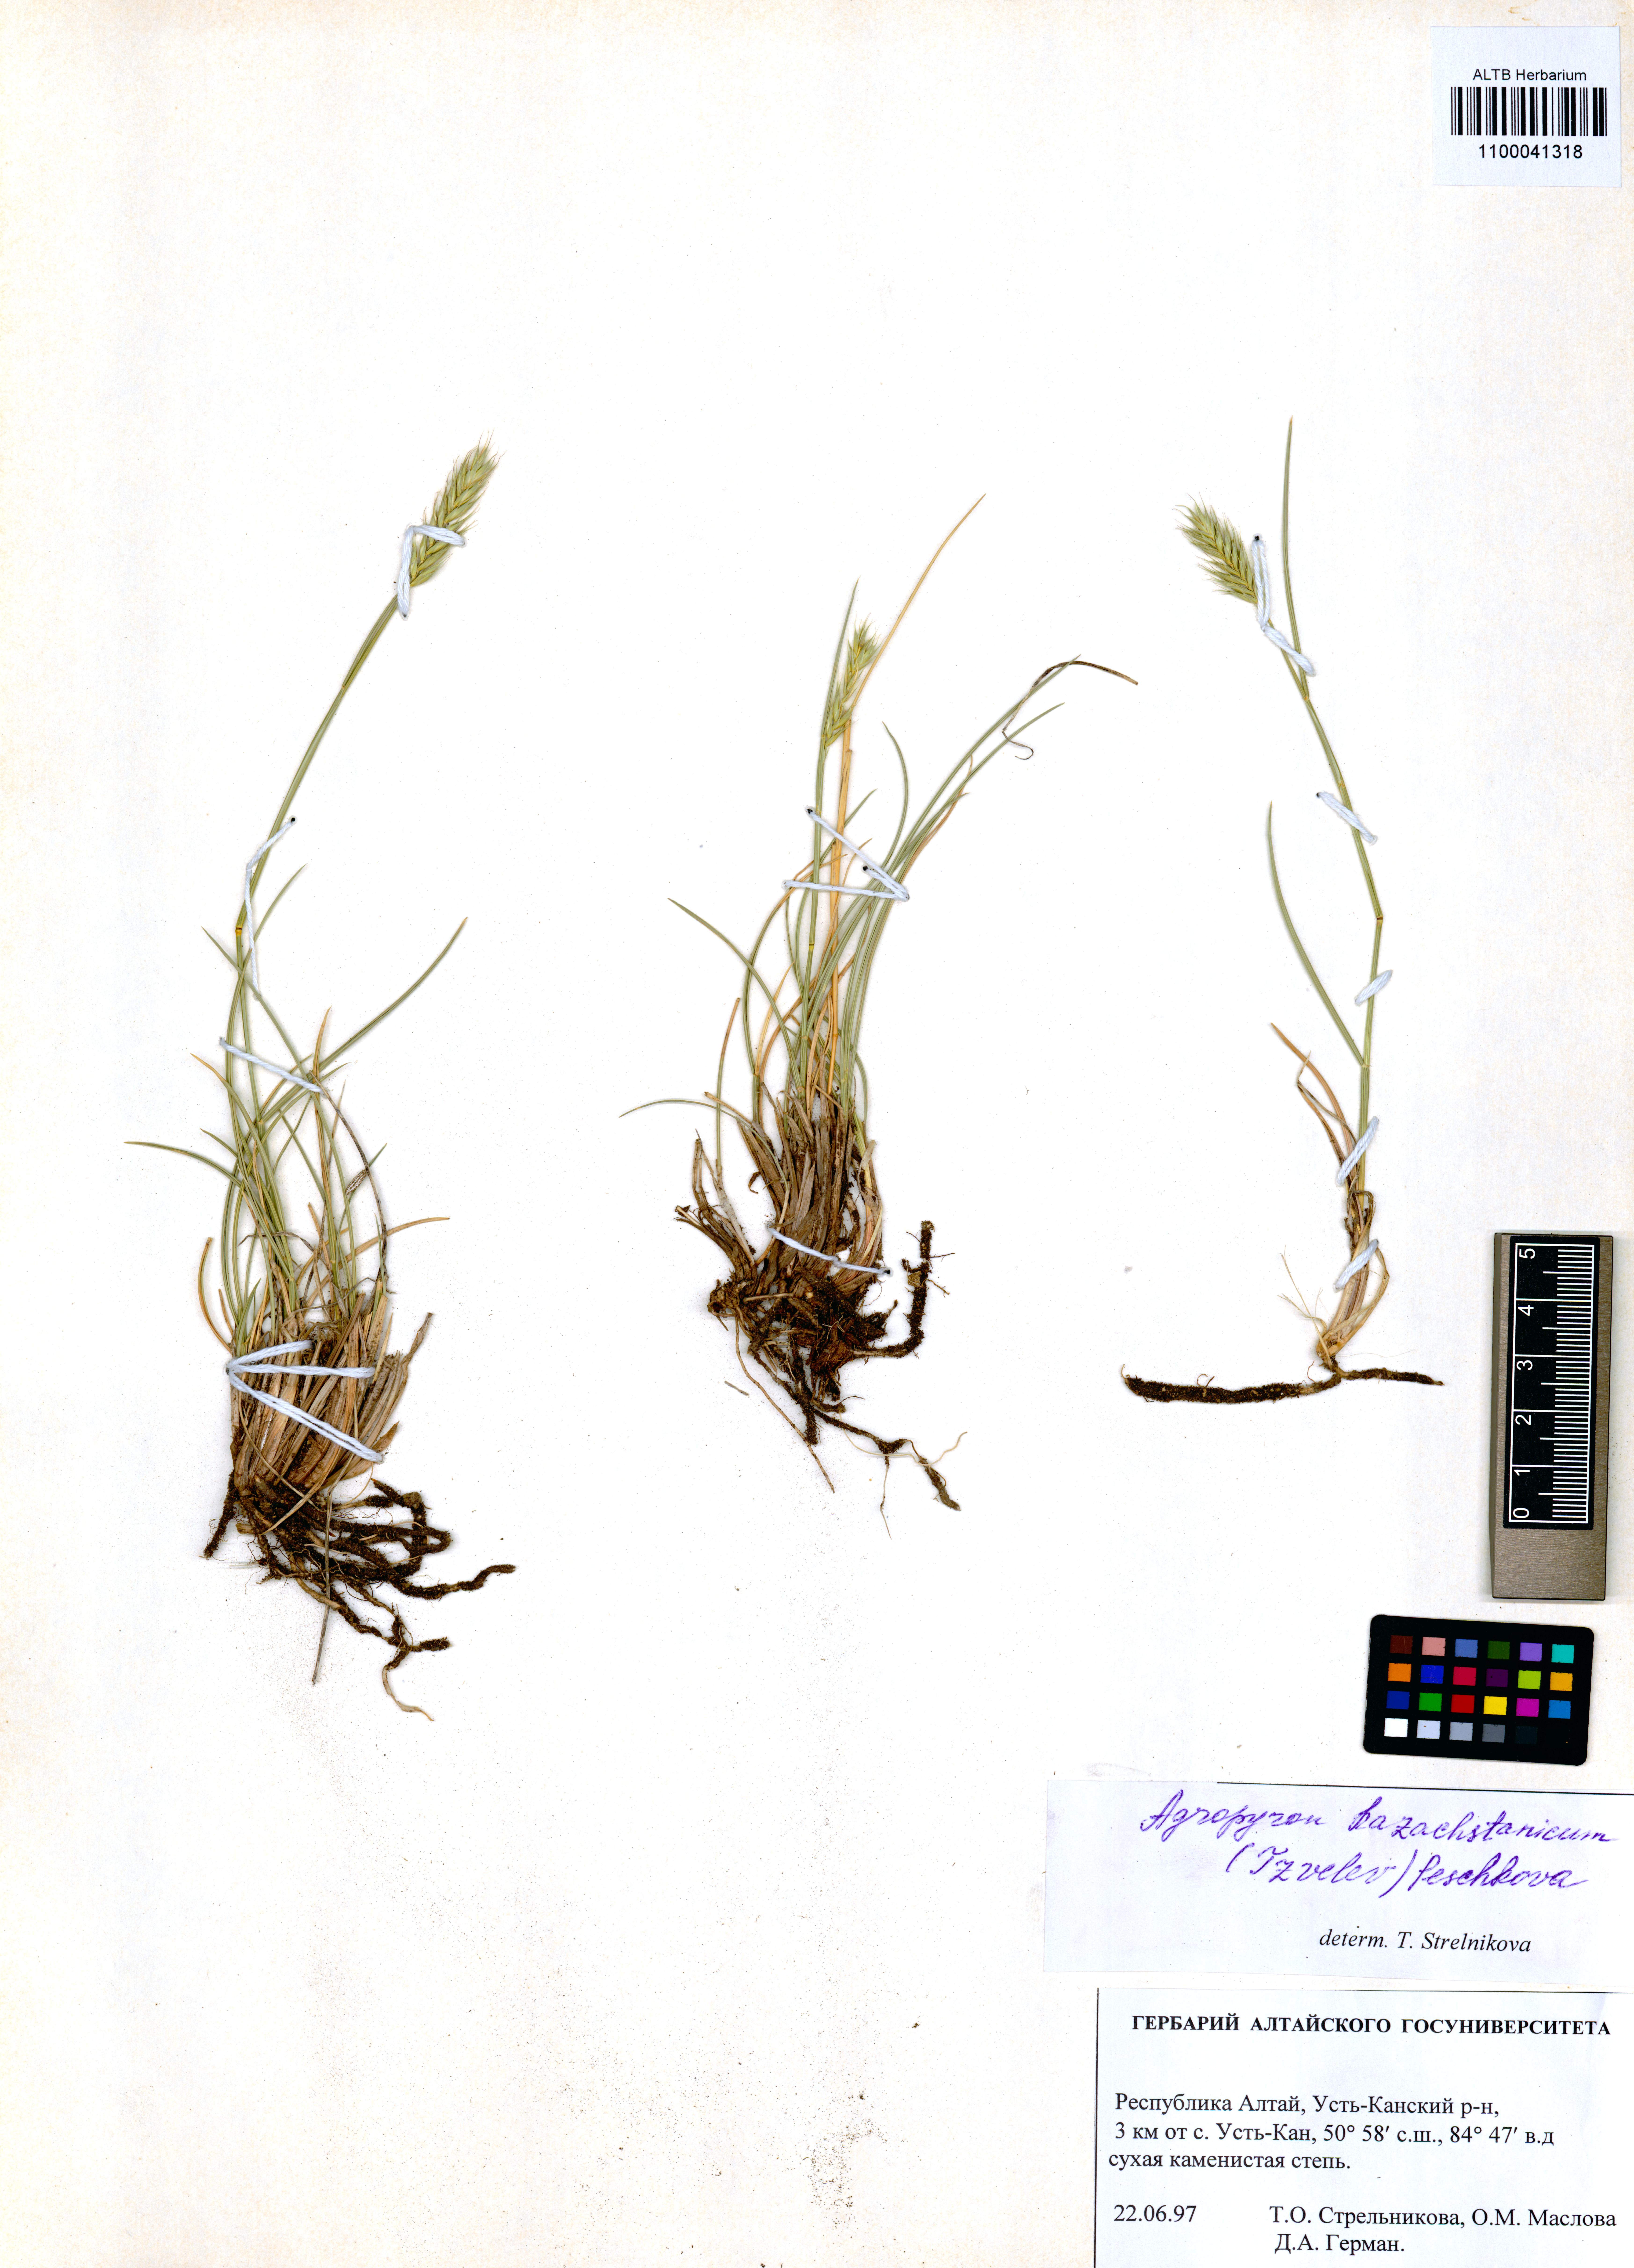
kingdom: Plantae
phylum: Tracheophyta
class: Liliopsida
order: Poales
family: Poaceae
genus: Agropyron
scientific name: Agropyron cristatum
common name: Crested wheatgrass
